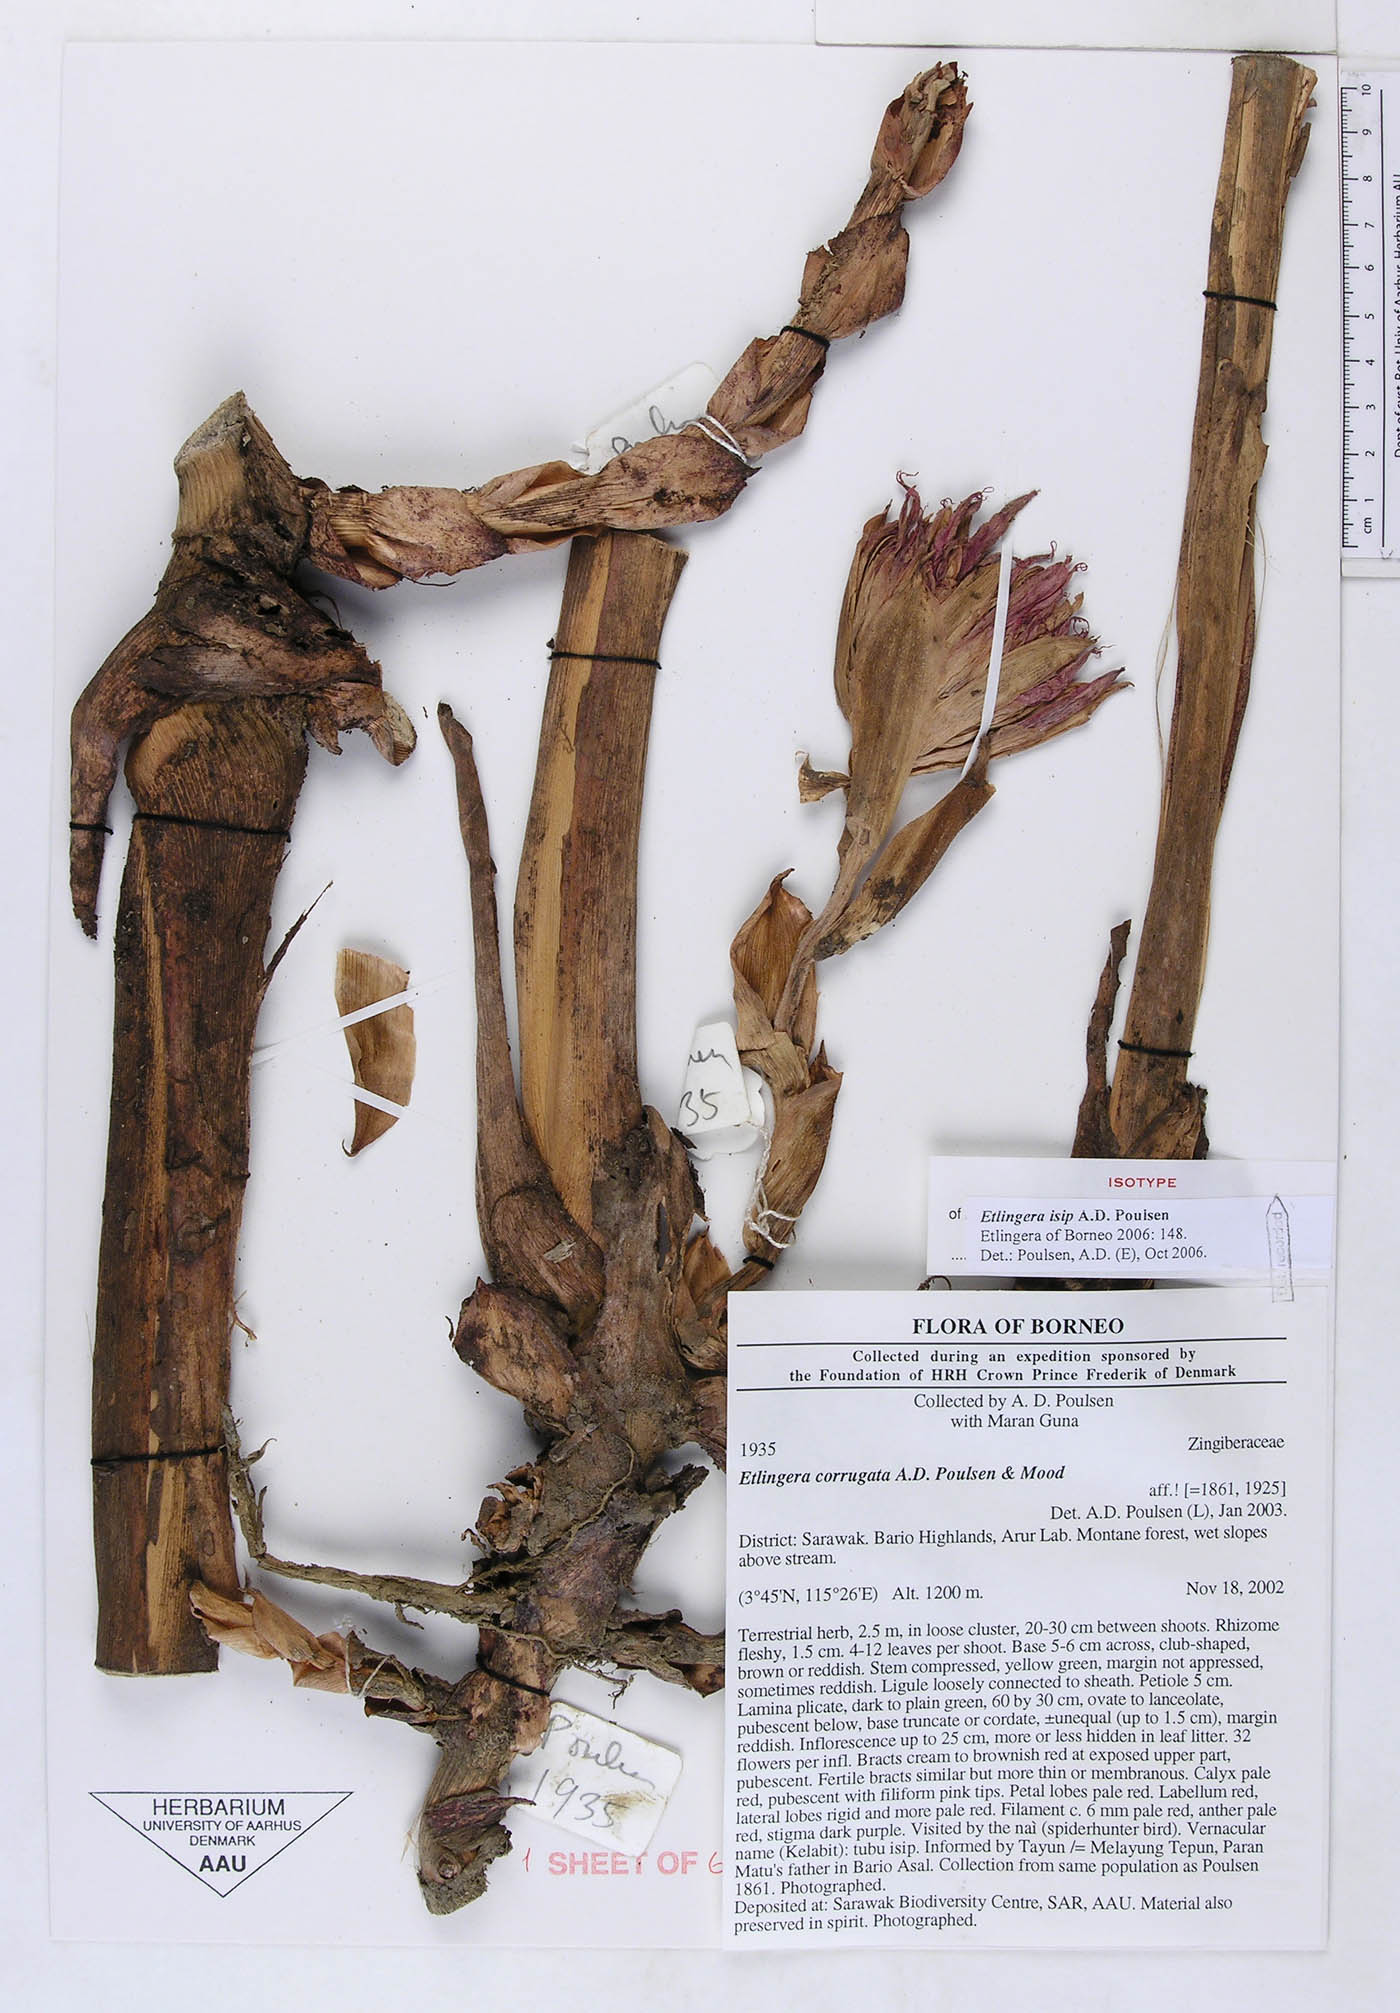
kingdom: Plantae
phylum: Tracheophyta
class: Liliopsida
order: Zingiberales
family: Zingiberaceae
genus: Etlingera
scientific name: Etlingera isip
